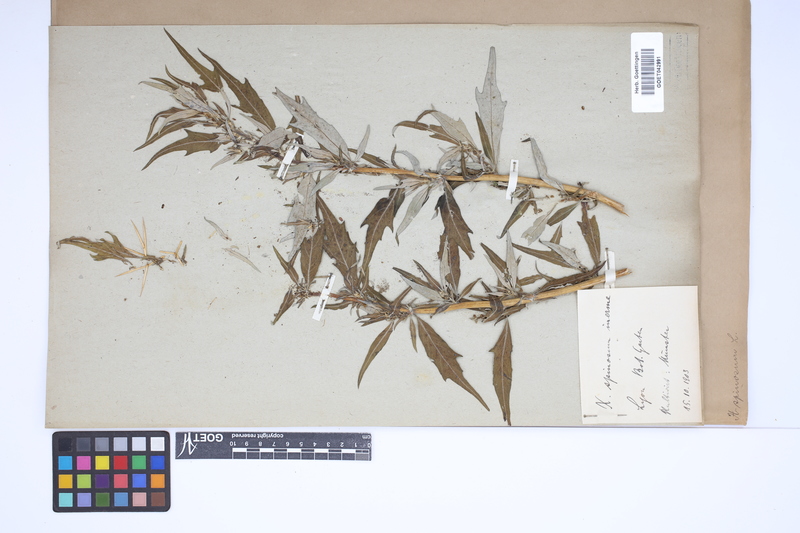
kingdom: Plantae
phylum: Tracheophyta
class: Magnoliopsida
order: Asterales
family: Asteraceae
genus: Xanthium
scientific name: Xanthium spinosum
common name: Spiny cocklebur
